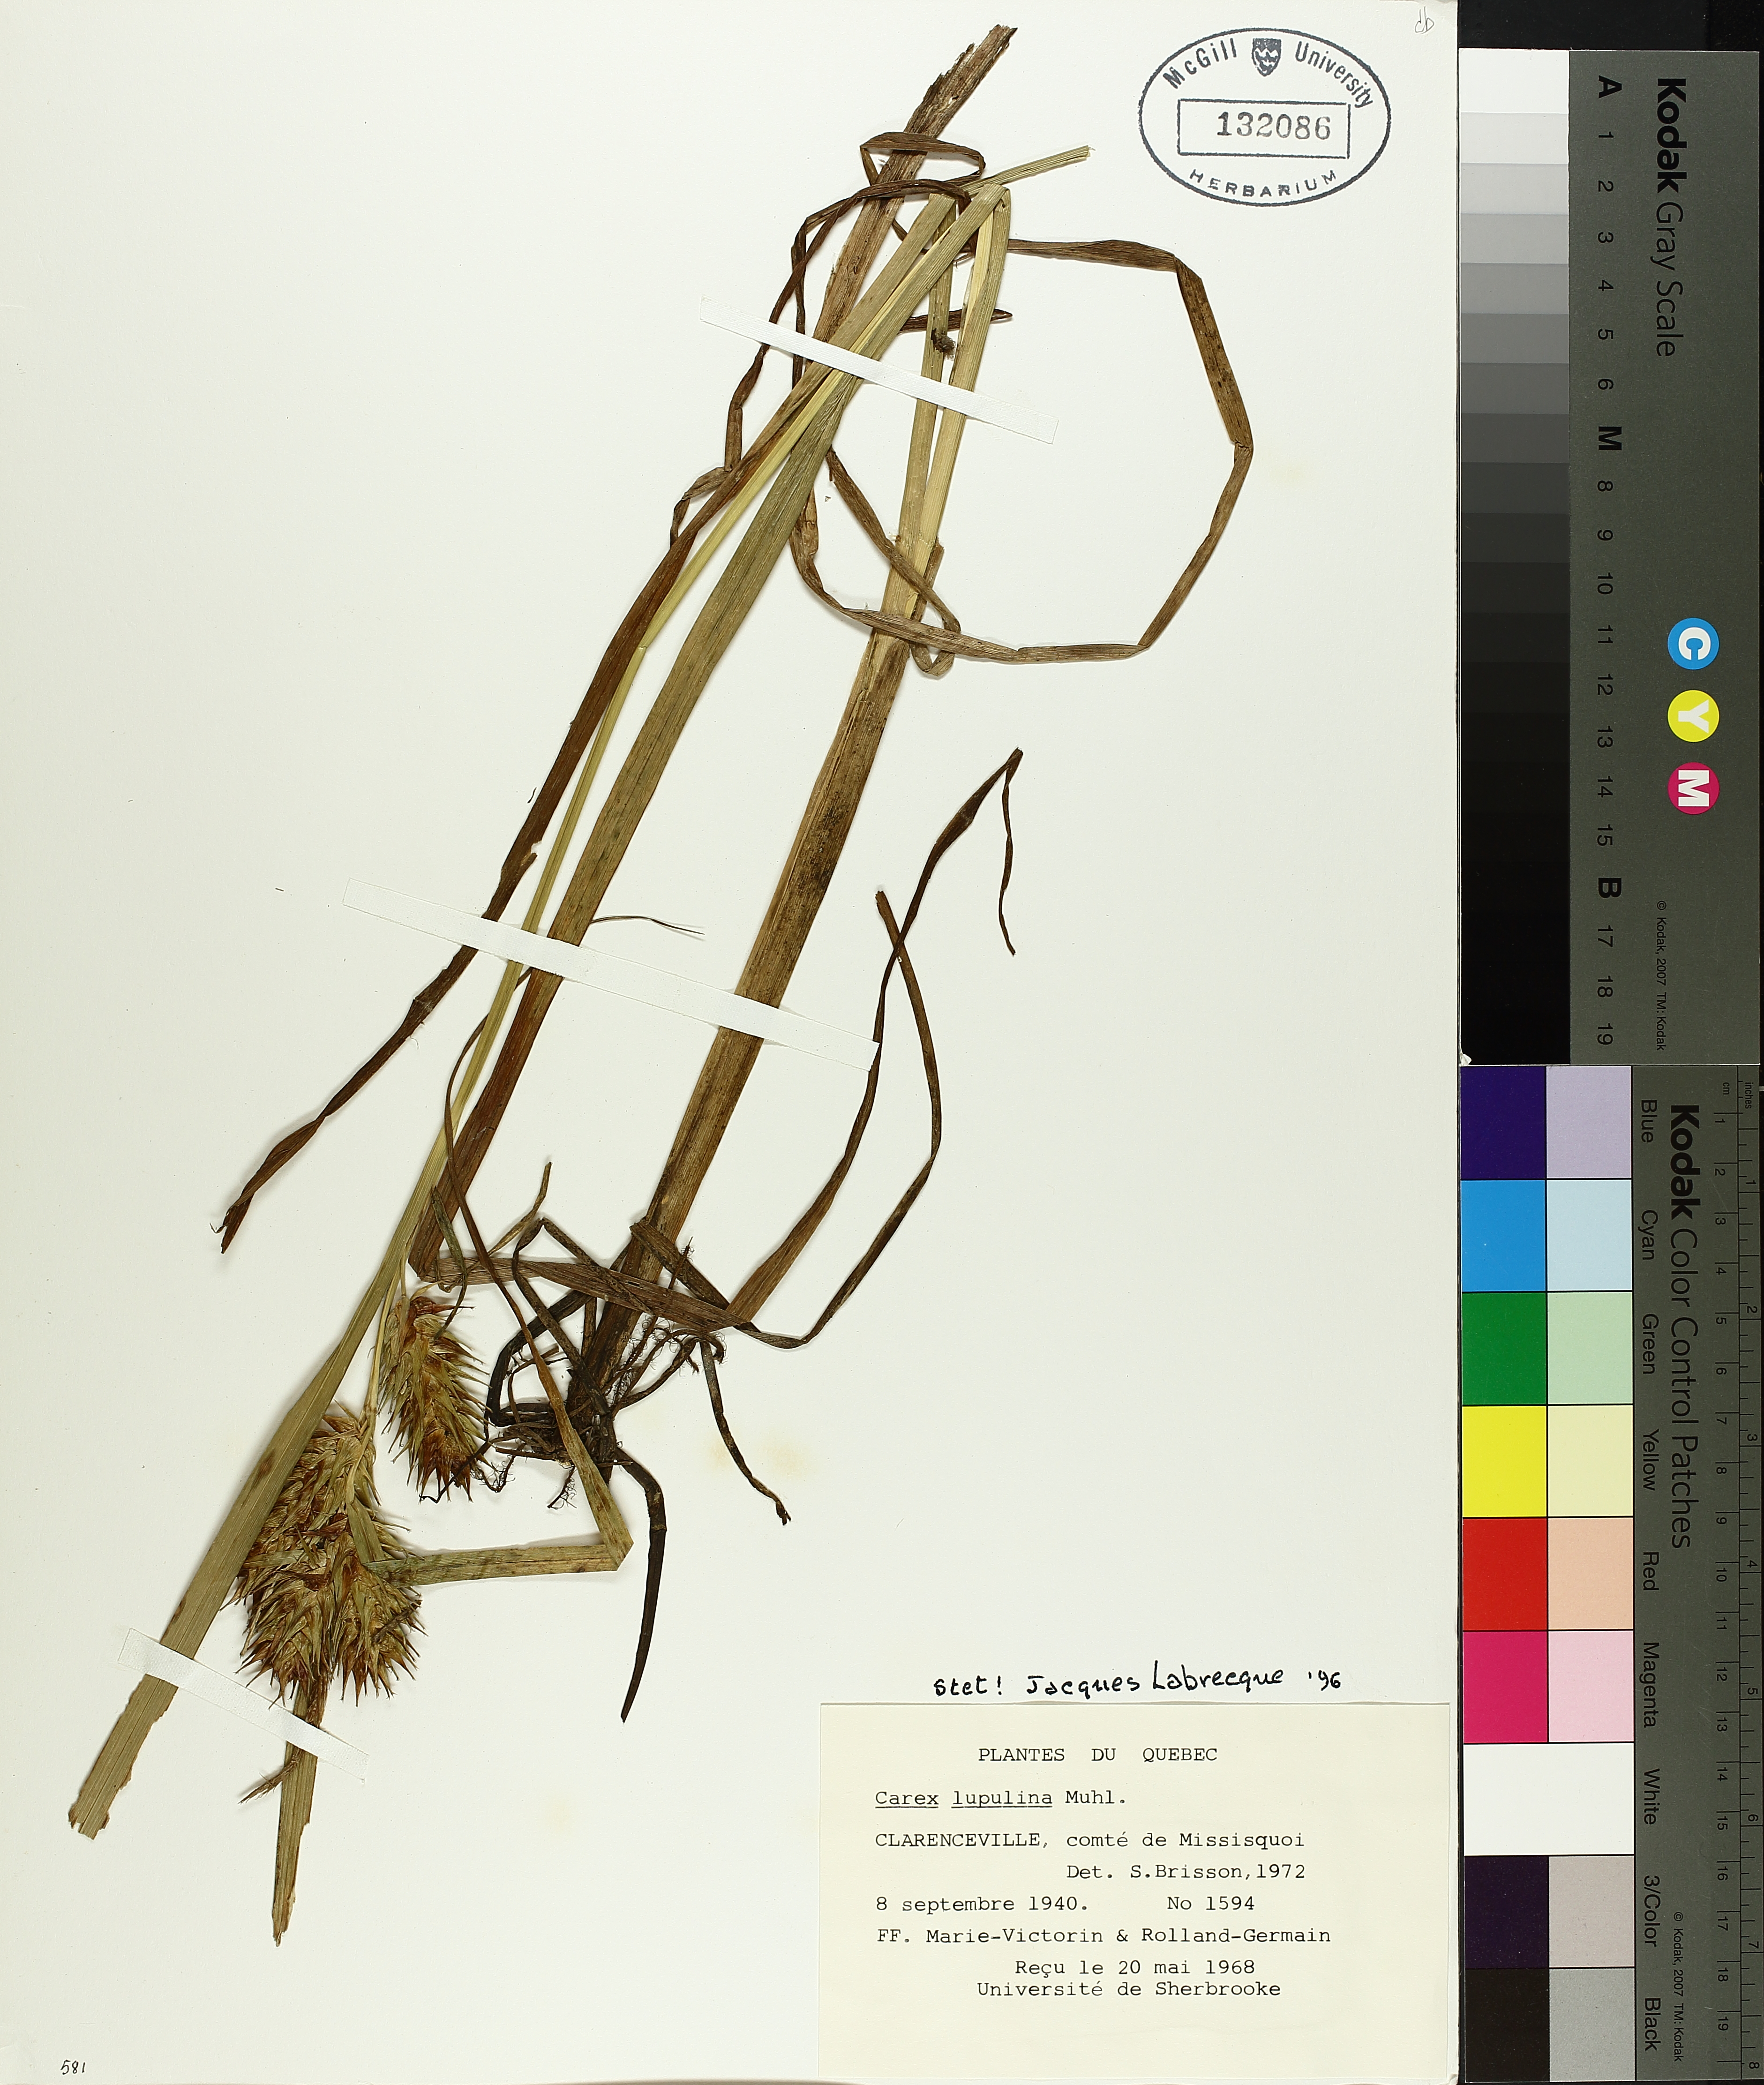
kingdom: Plantae
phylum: Tracheophyta
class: Liliopsida
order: Poales
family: Cyperaceae
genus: Carex
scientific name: Carex lupulina
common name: Hop sedge
